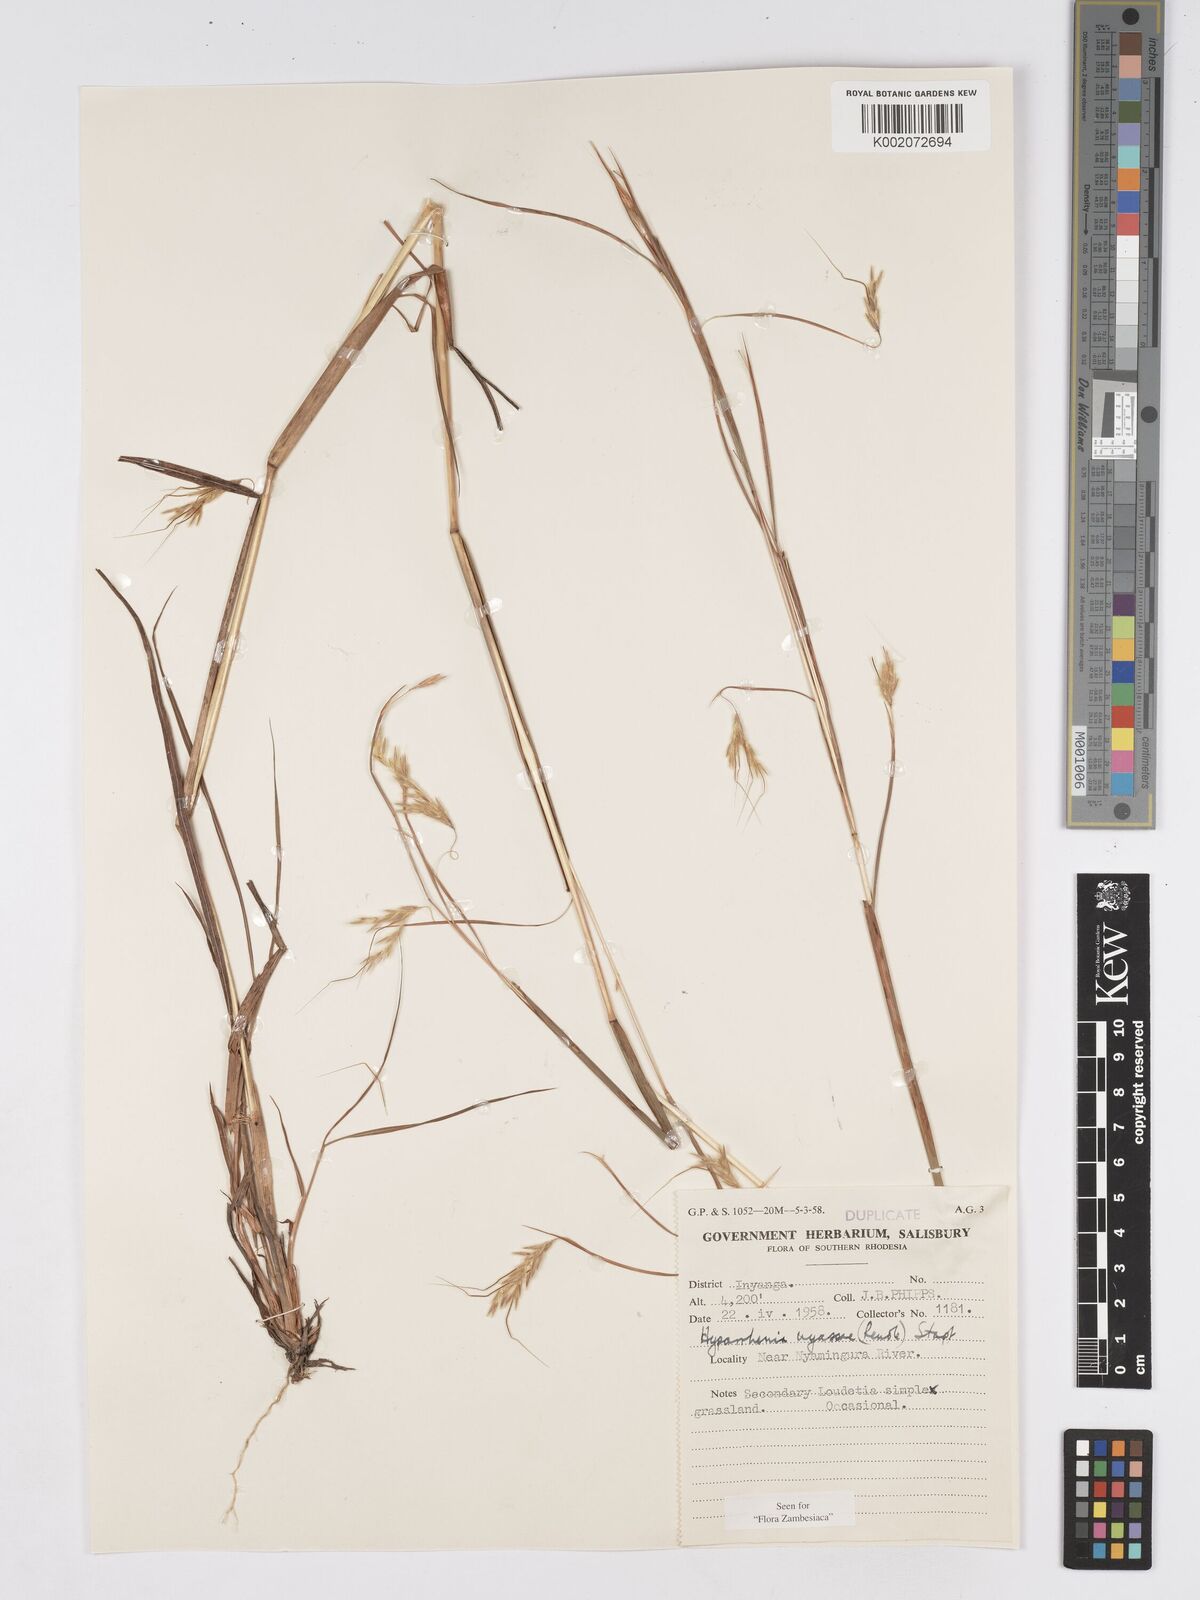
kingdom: Plantae
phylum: Tracheophyta
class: Liliopsida
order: Poales
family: Poaceae
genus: Hyparrhenia
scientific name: Hyparrhenia nyassae
